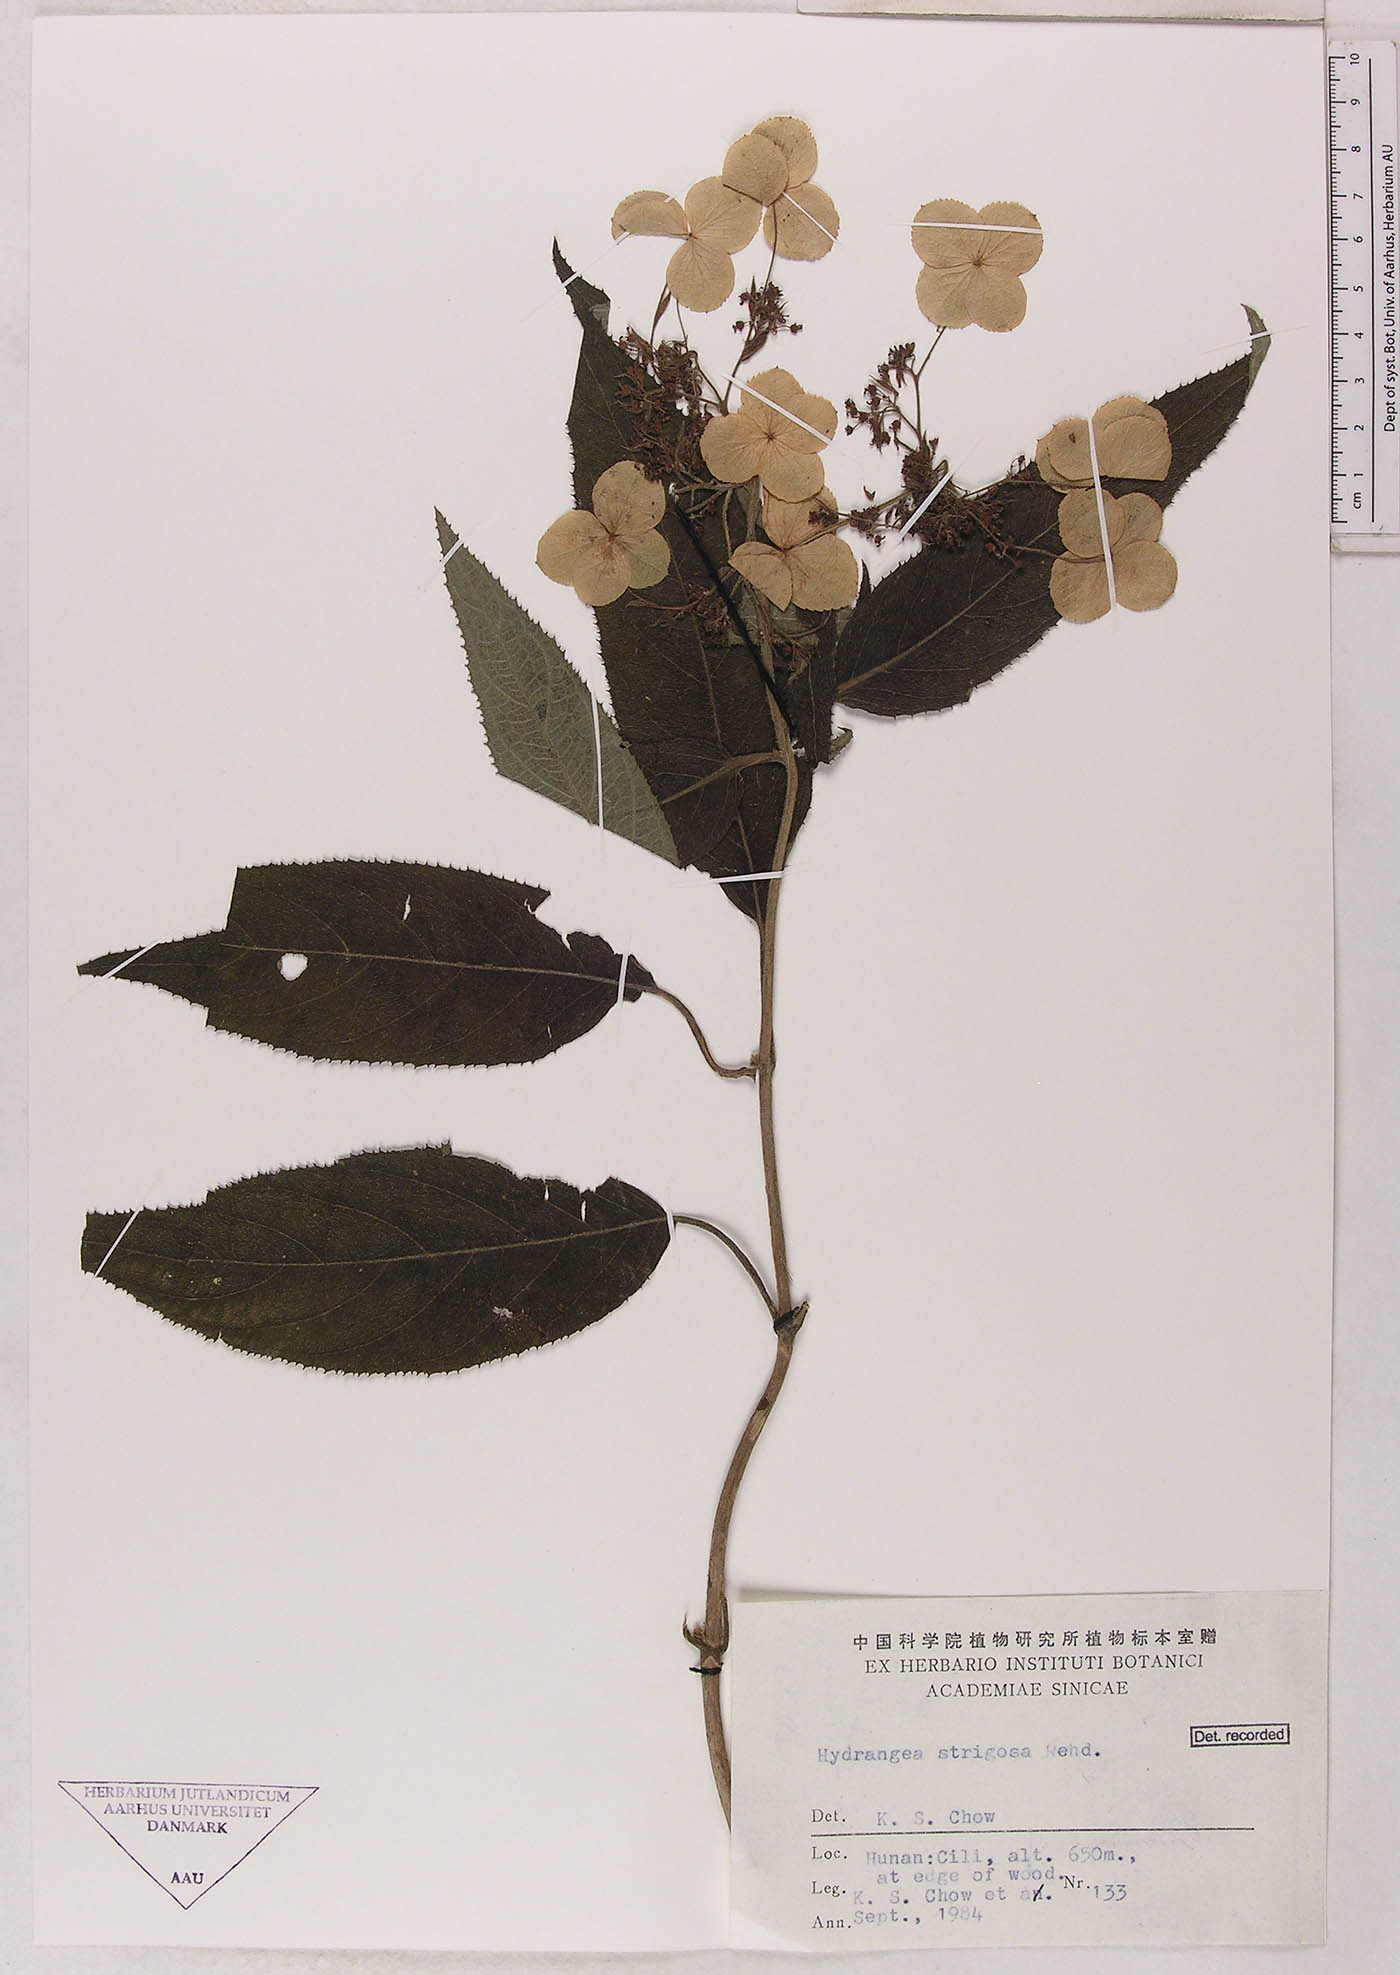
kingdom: Plantae
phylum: Tracheophyta
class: Magnoliopsida
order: Cornales
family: Hydrangeaceae
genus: Hydrangea
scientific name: Hydrangea strigosa
